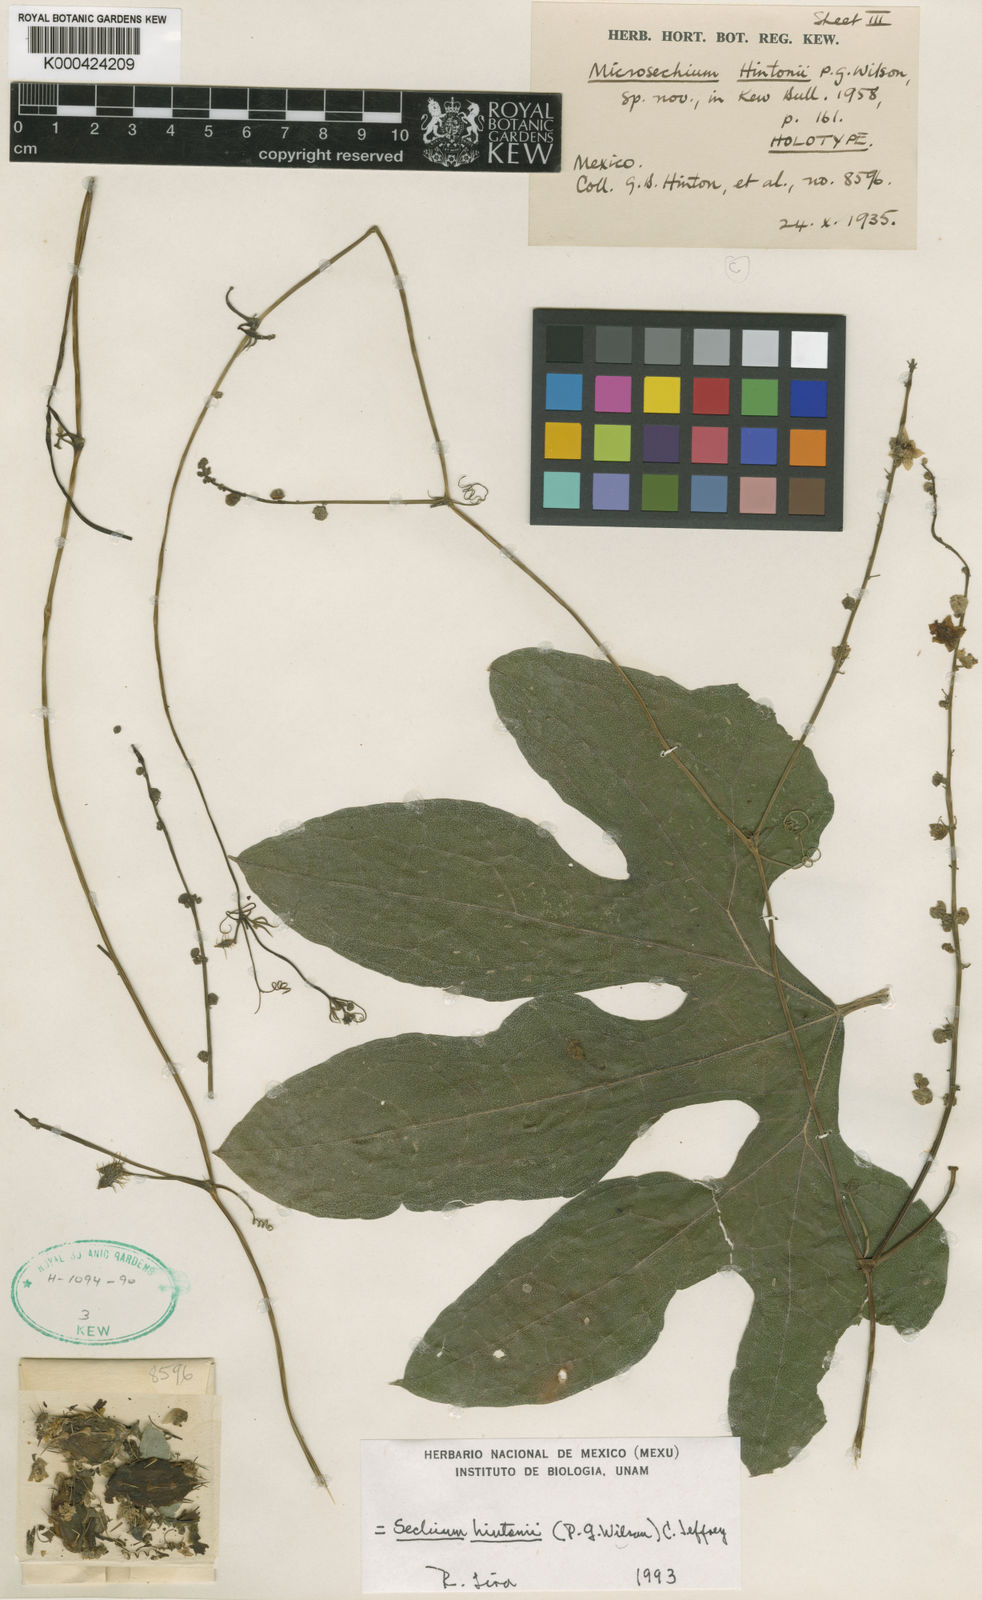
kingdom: Plantae
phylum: Tracheophyta
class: Magnoliopsida
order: Cucurbitales
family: Cucurbitaceae
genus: Sechium
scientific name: Sechium hintonii
